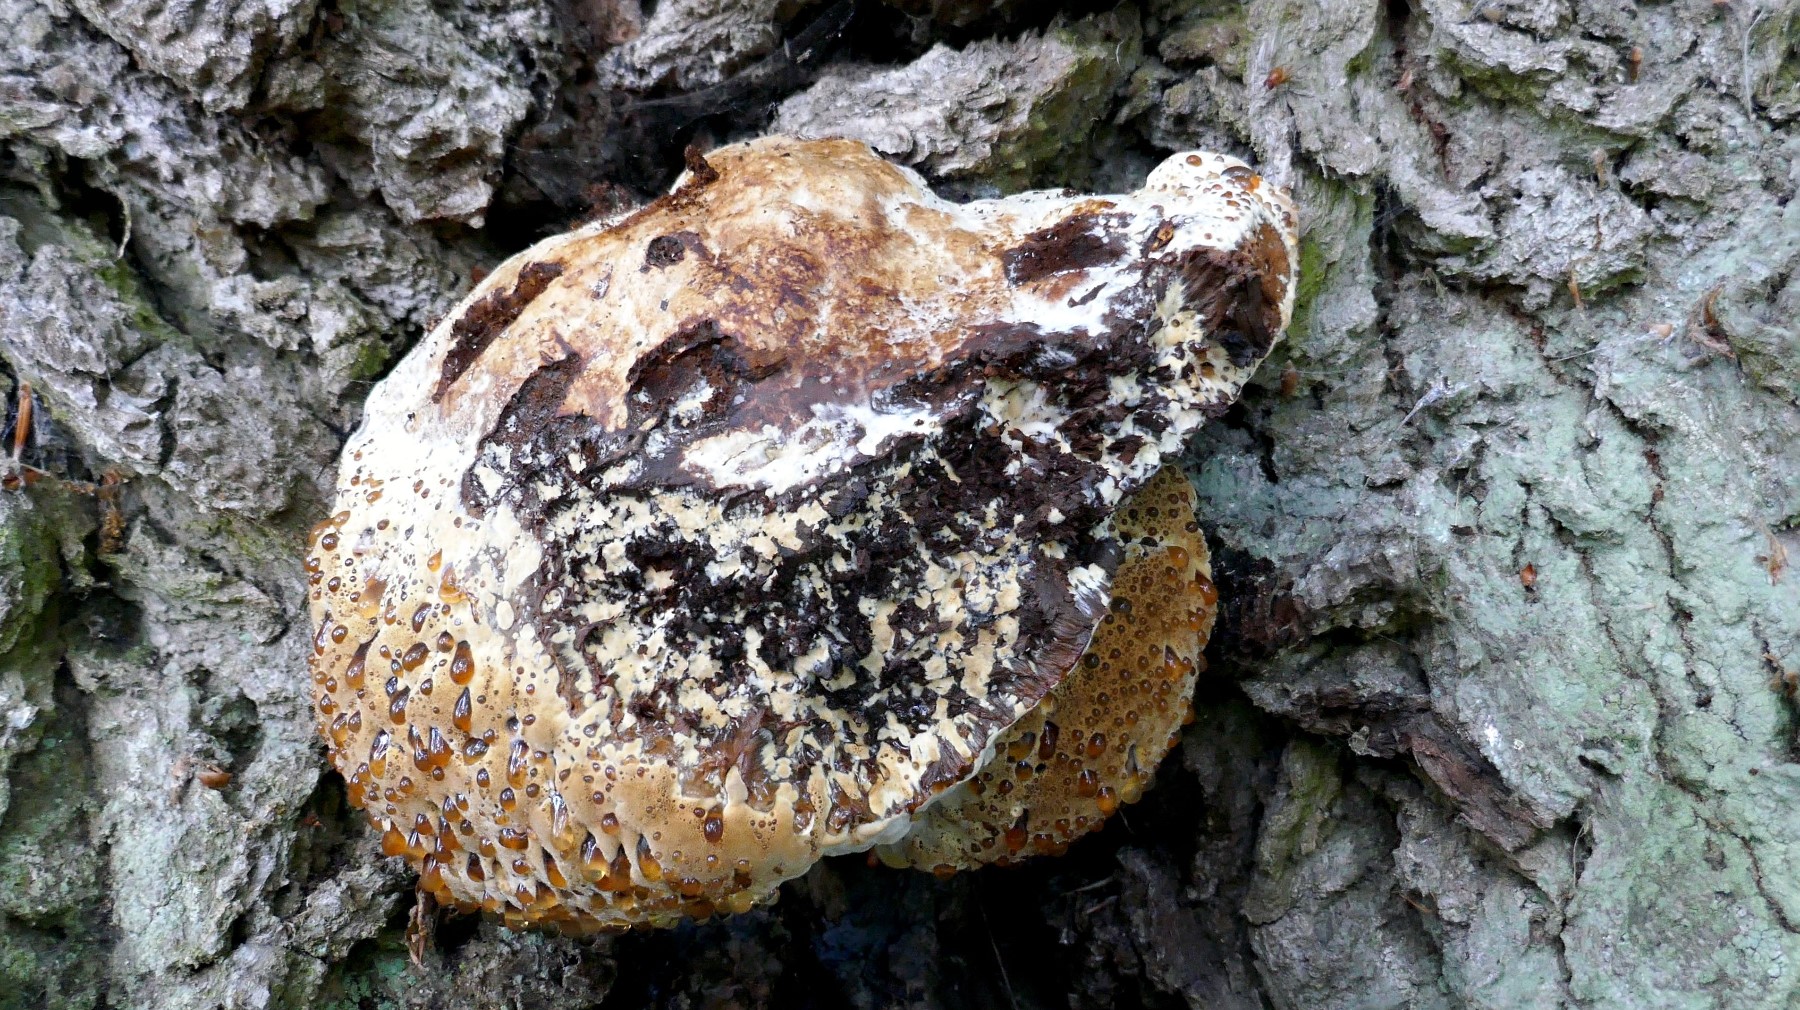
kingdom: Fungi
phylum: Basidiomycota
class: Agaricomycetes
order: Hymenochaetales
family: Hymenochaetaceae
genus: Pseudoinonotus
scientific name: Pseudoinonotus dryadeus
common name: ege-spejlporesvamp
